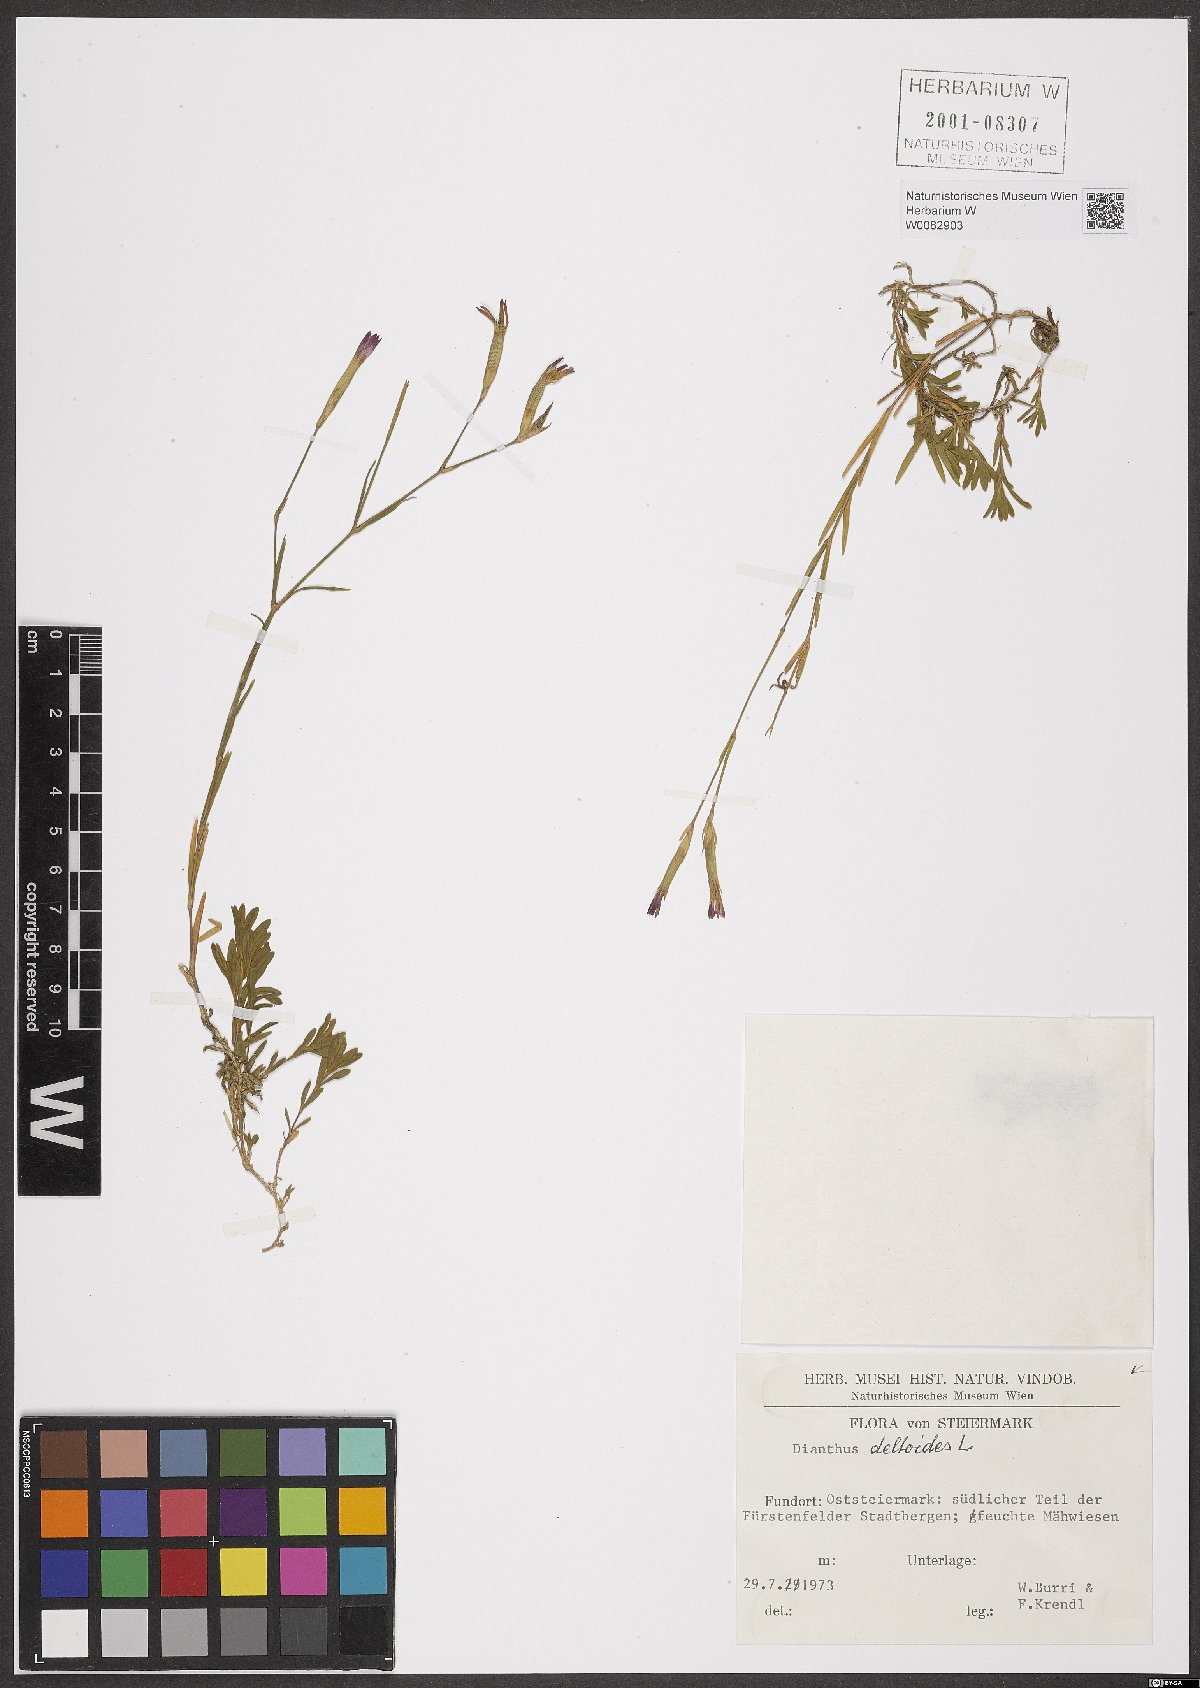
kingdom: Plantae
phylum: Tracheophyta
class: Magnoliopsida
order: Caryophyllales
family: Caryophyllaceae
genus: Dianthus
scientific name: Dianthus deltoides
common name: Maiden pink
